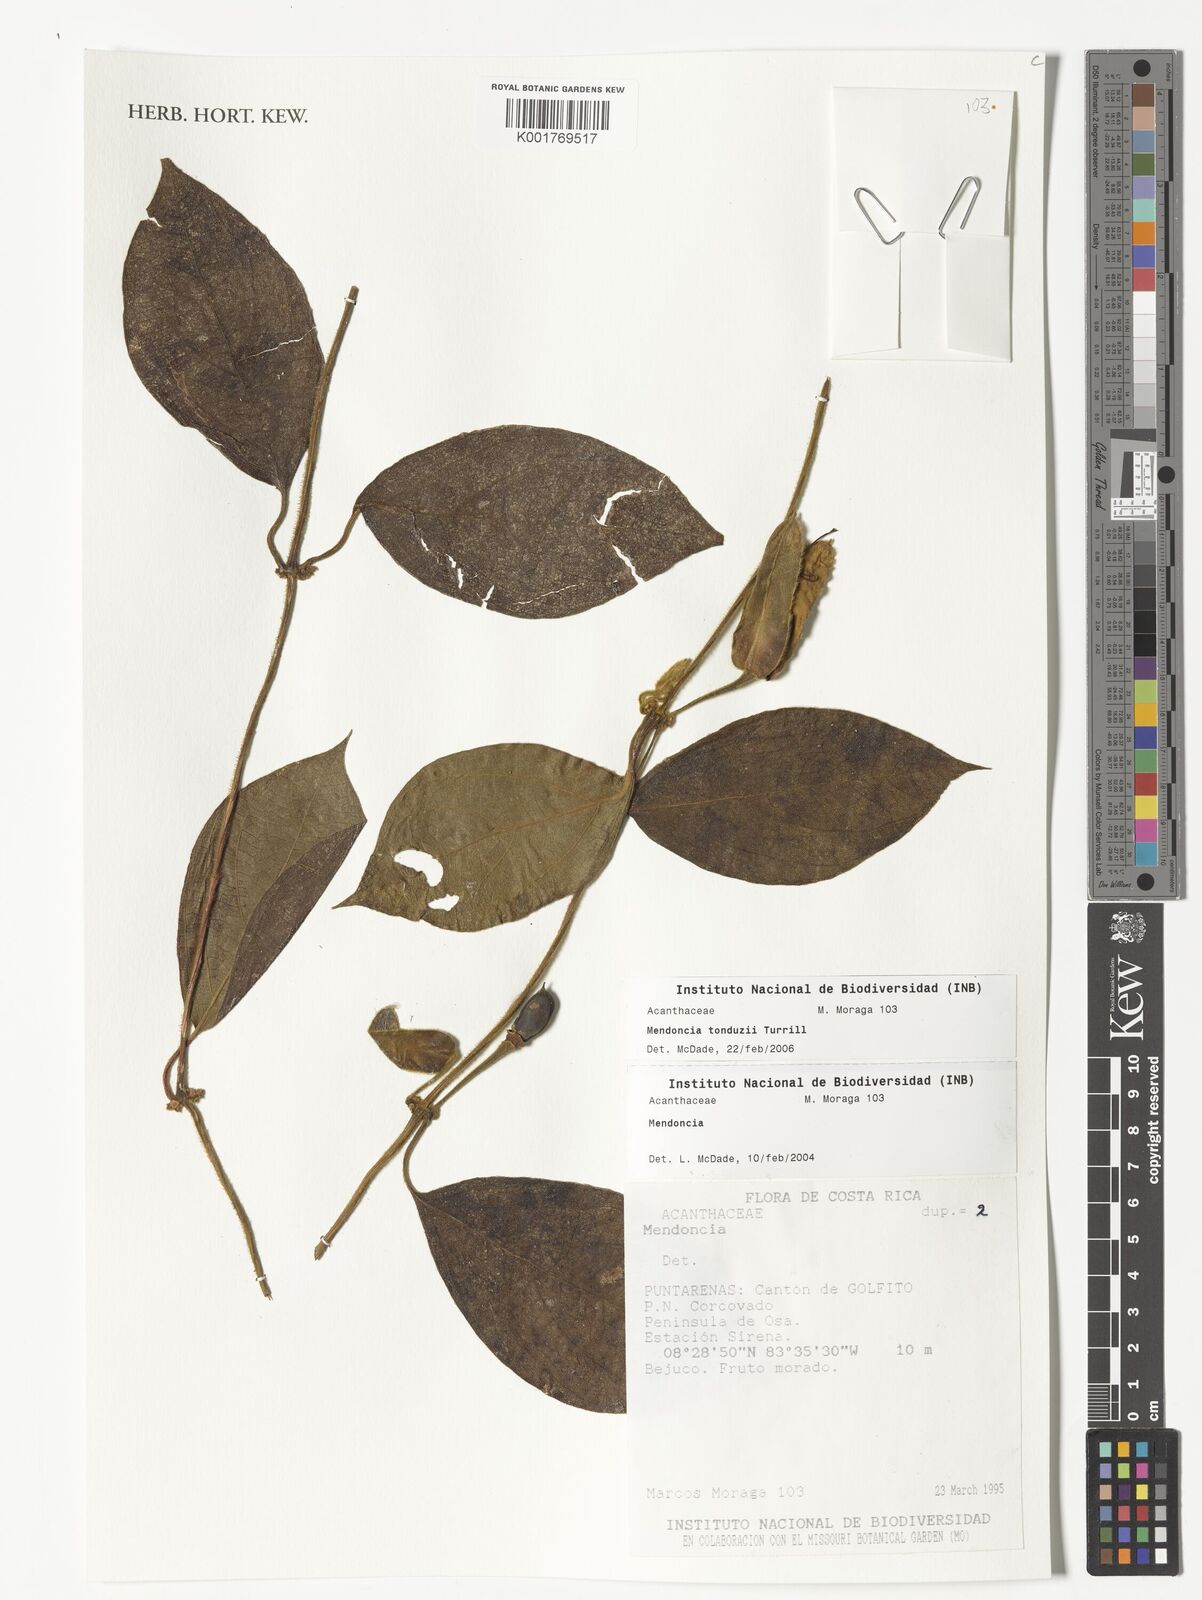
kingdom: Plantae
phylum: Tracheophyta
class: Magnoliopsida
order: Lamiales
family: Acanthaceae
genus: Mendoncia
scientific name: Mendoncia tonduzii
